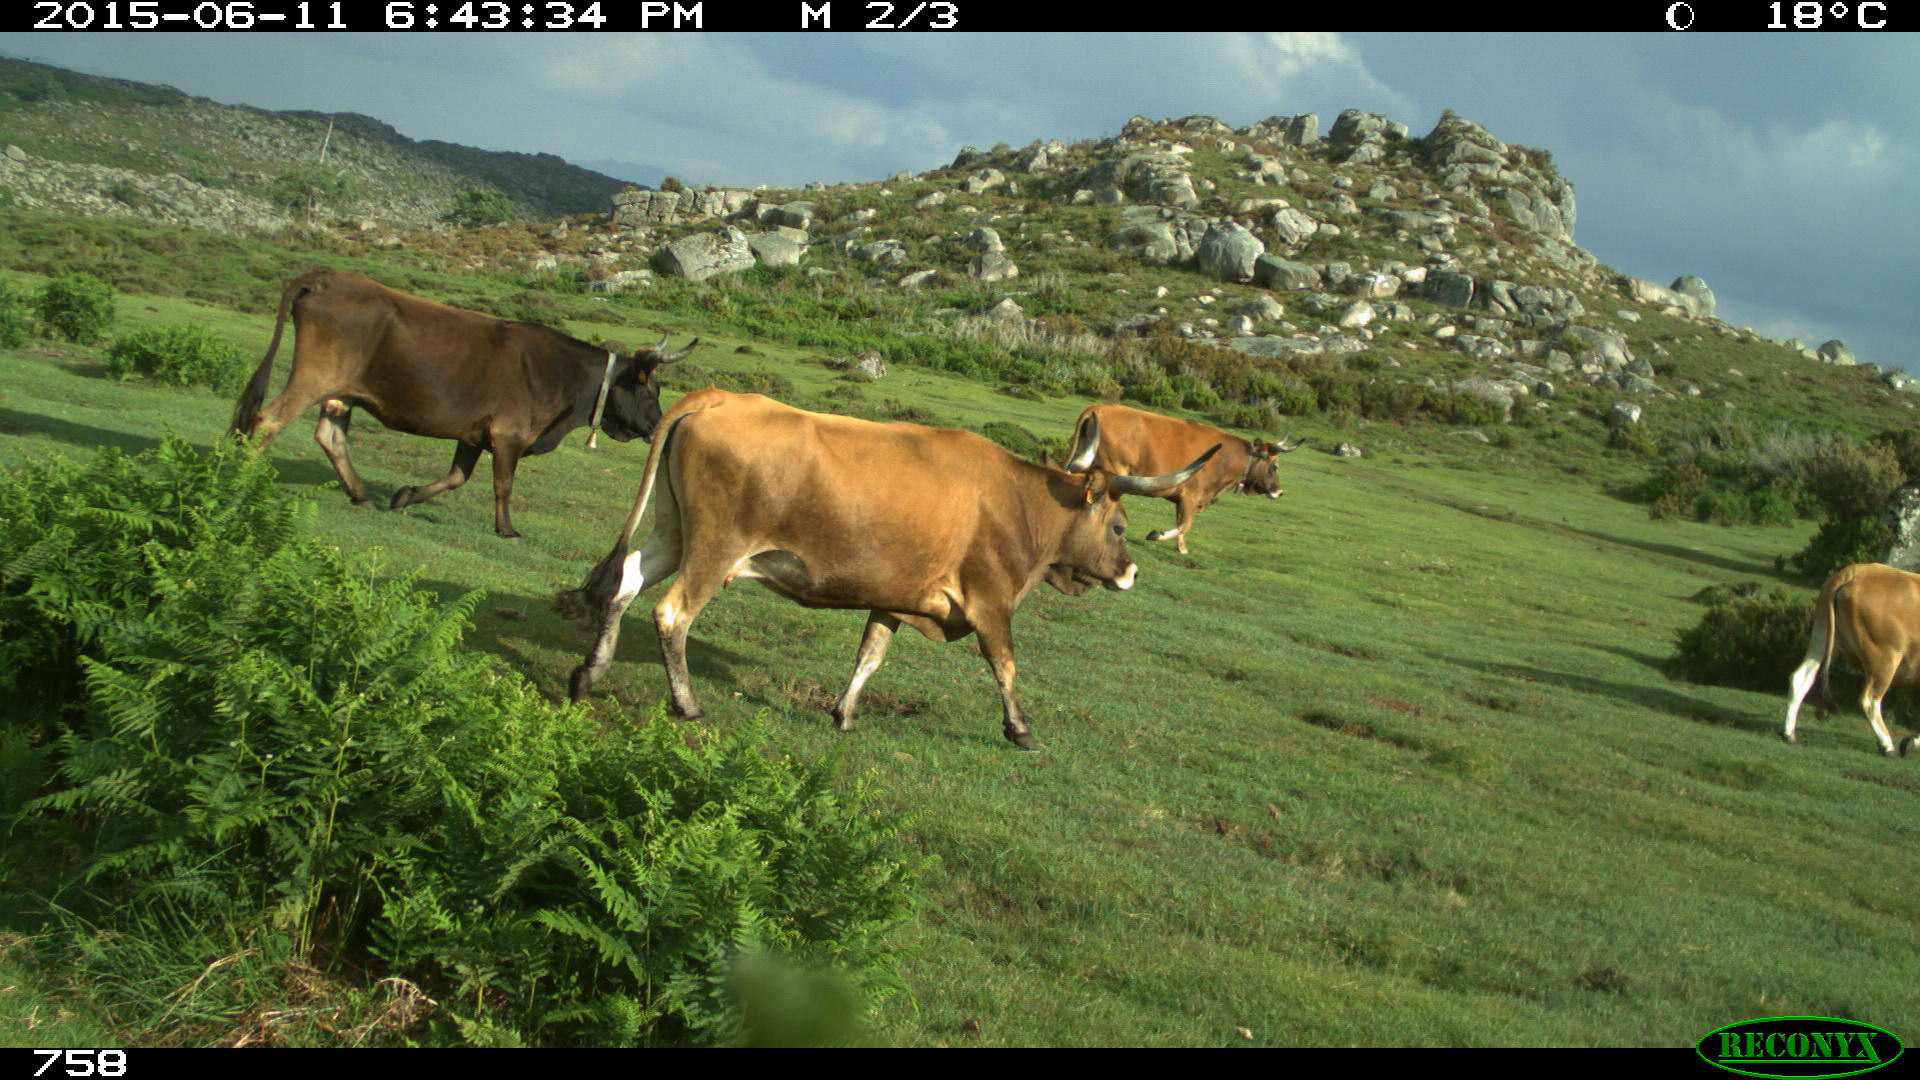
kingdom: Animalia
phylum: Chordata
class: Mammalia
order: Artiodactyla
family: Bovidae
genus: Bos
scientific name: Bos taurus
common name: Domesticated cattle
